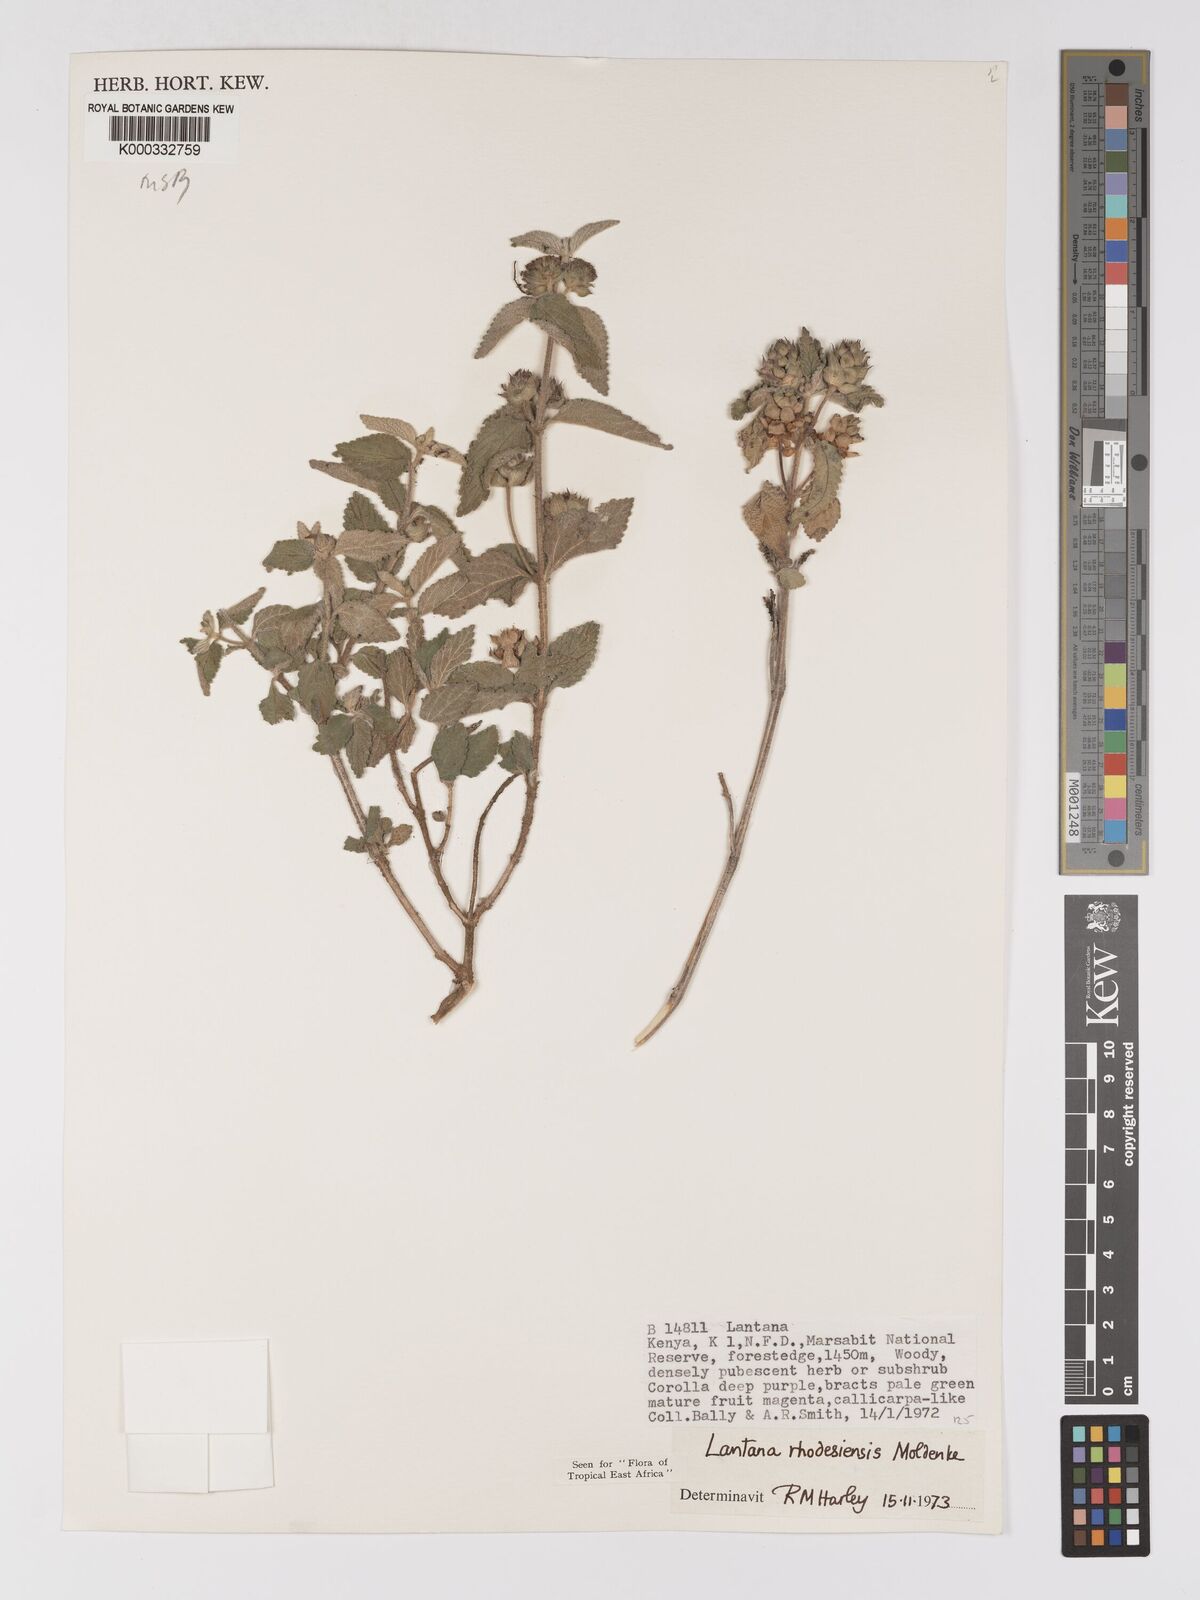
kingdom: Plantae
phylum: Tracheophyta
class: Magnoliopsida
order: Lamiales
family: Verbenaceae
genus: Lantana
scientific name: Lantana ukambensis
